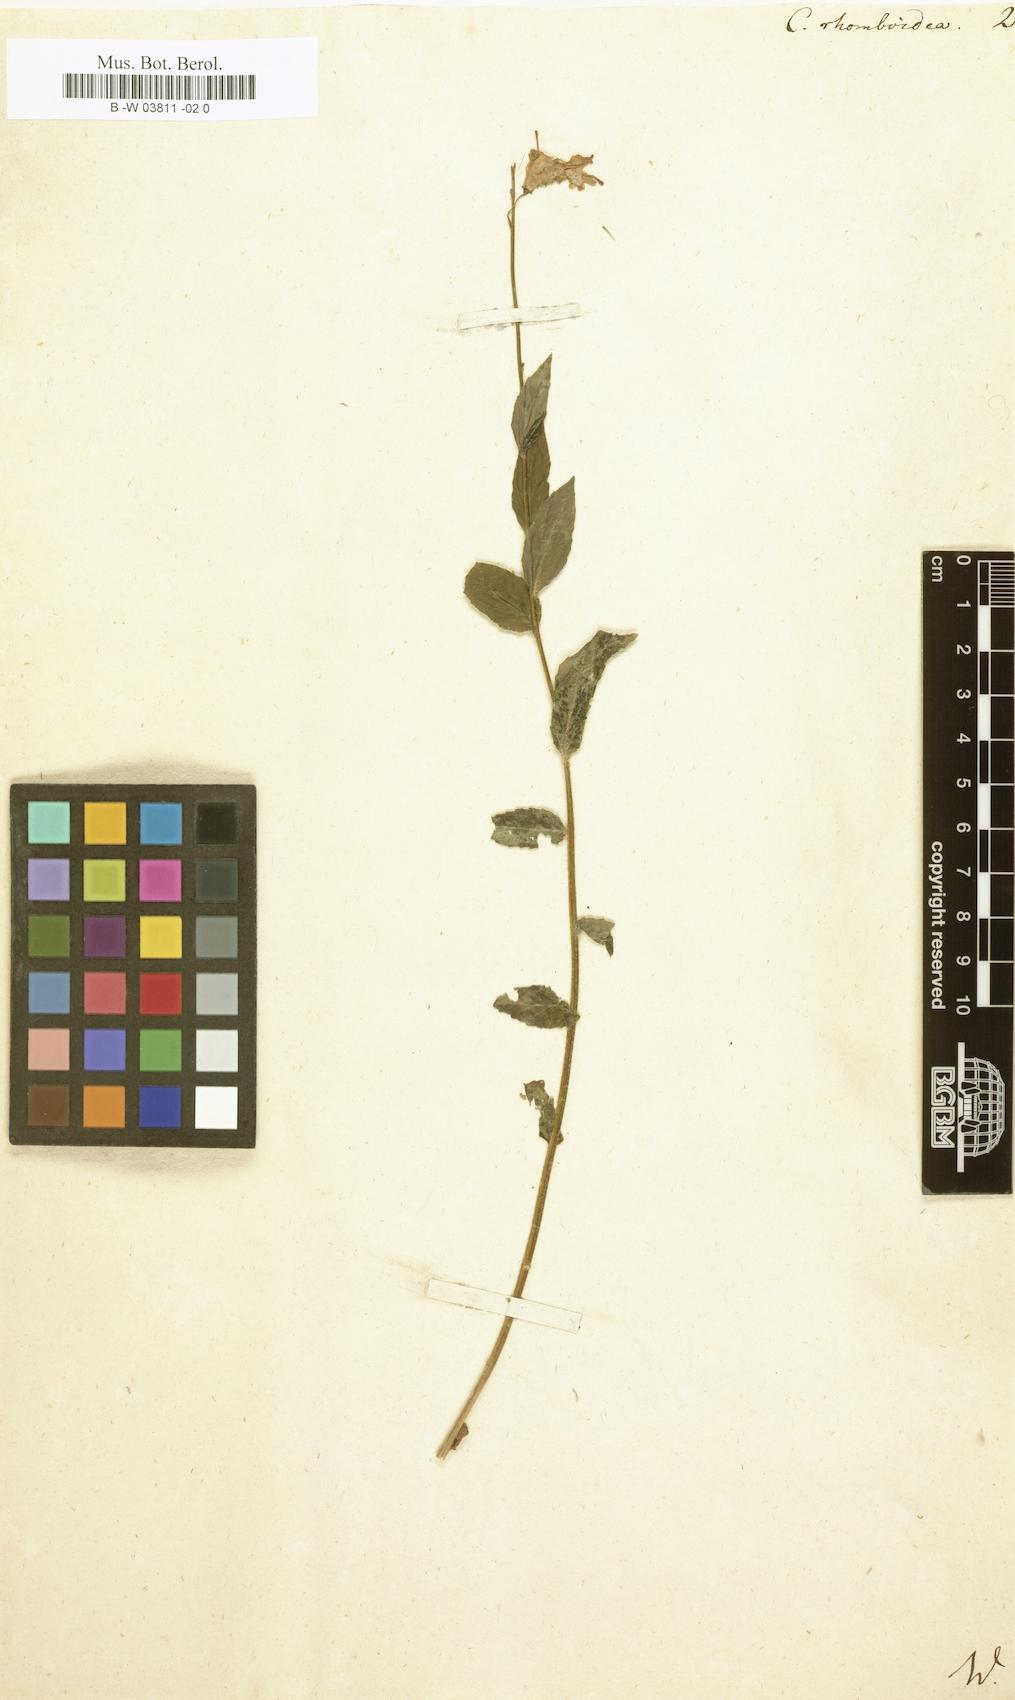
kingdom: Plantae
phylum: Tracheophyta
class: Magnoliopsida
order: Asterales
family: Campanulaceae
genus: Campanula
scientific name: Campanula rhomboidea
